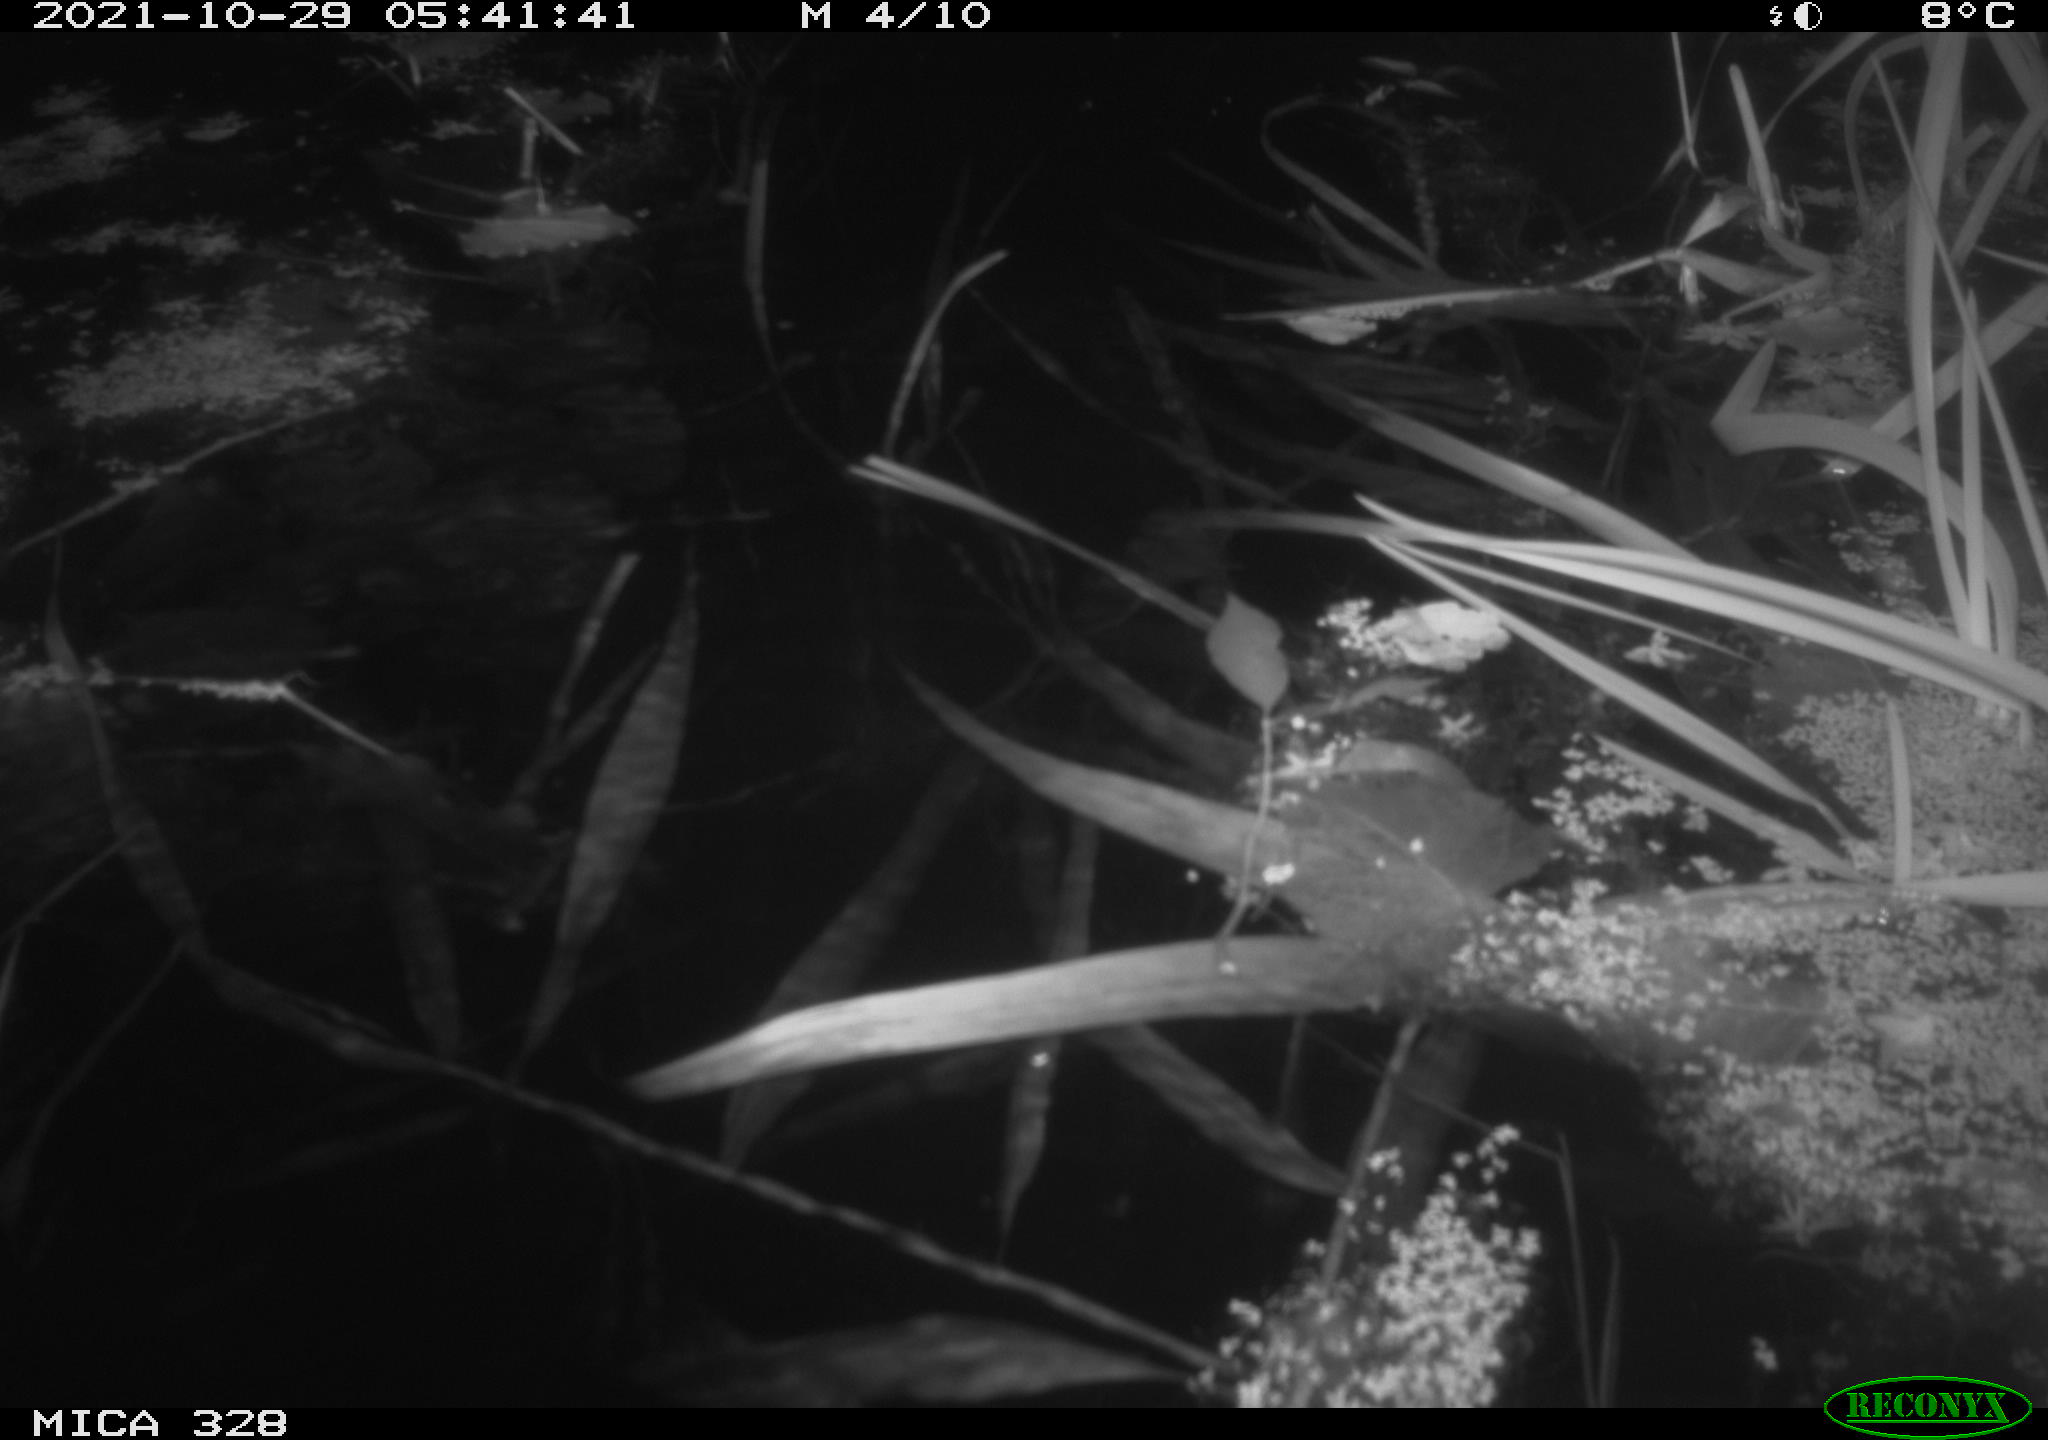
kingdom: Animalia
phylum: Chordata
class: Mammalia
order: Rodentia
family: Cricetidae
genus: Ondatra
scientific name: Ondatra zibethicus
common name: Muskrat
